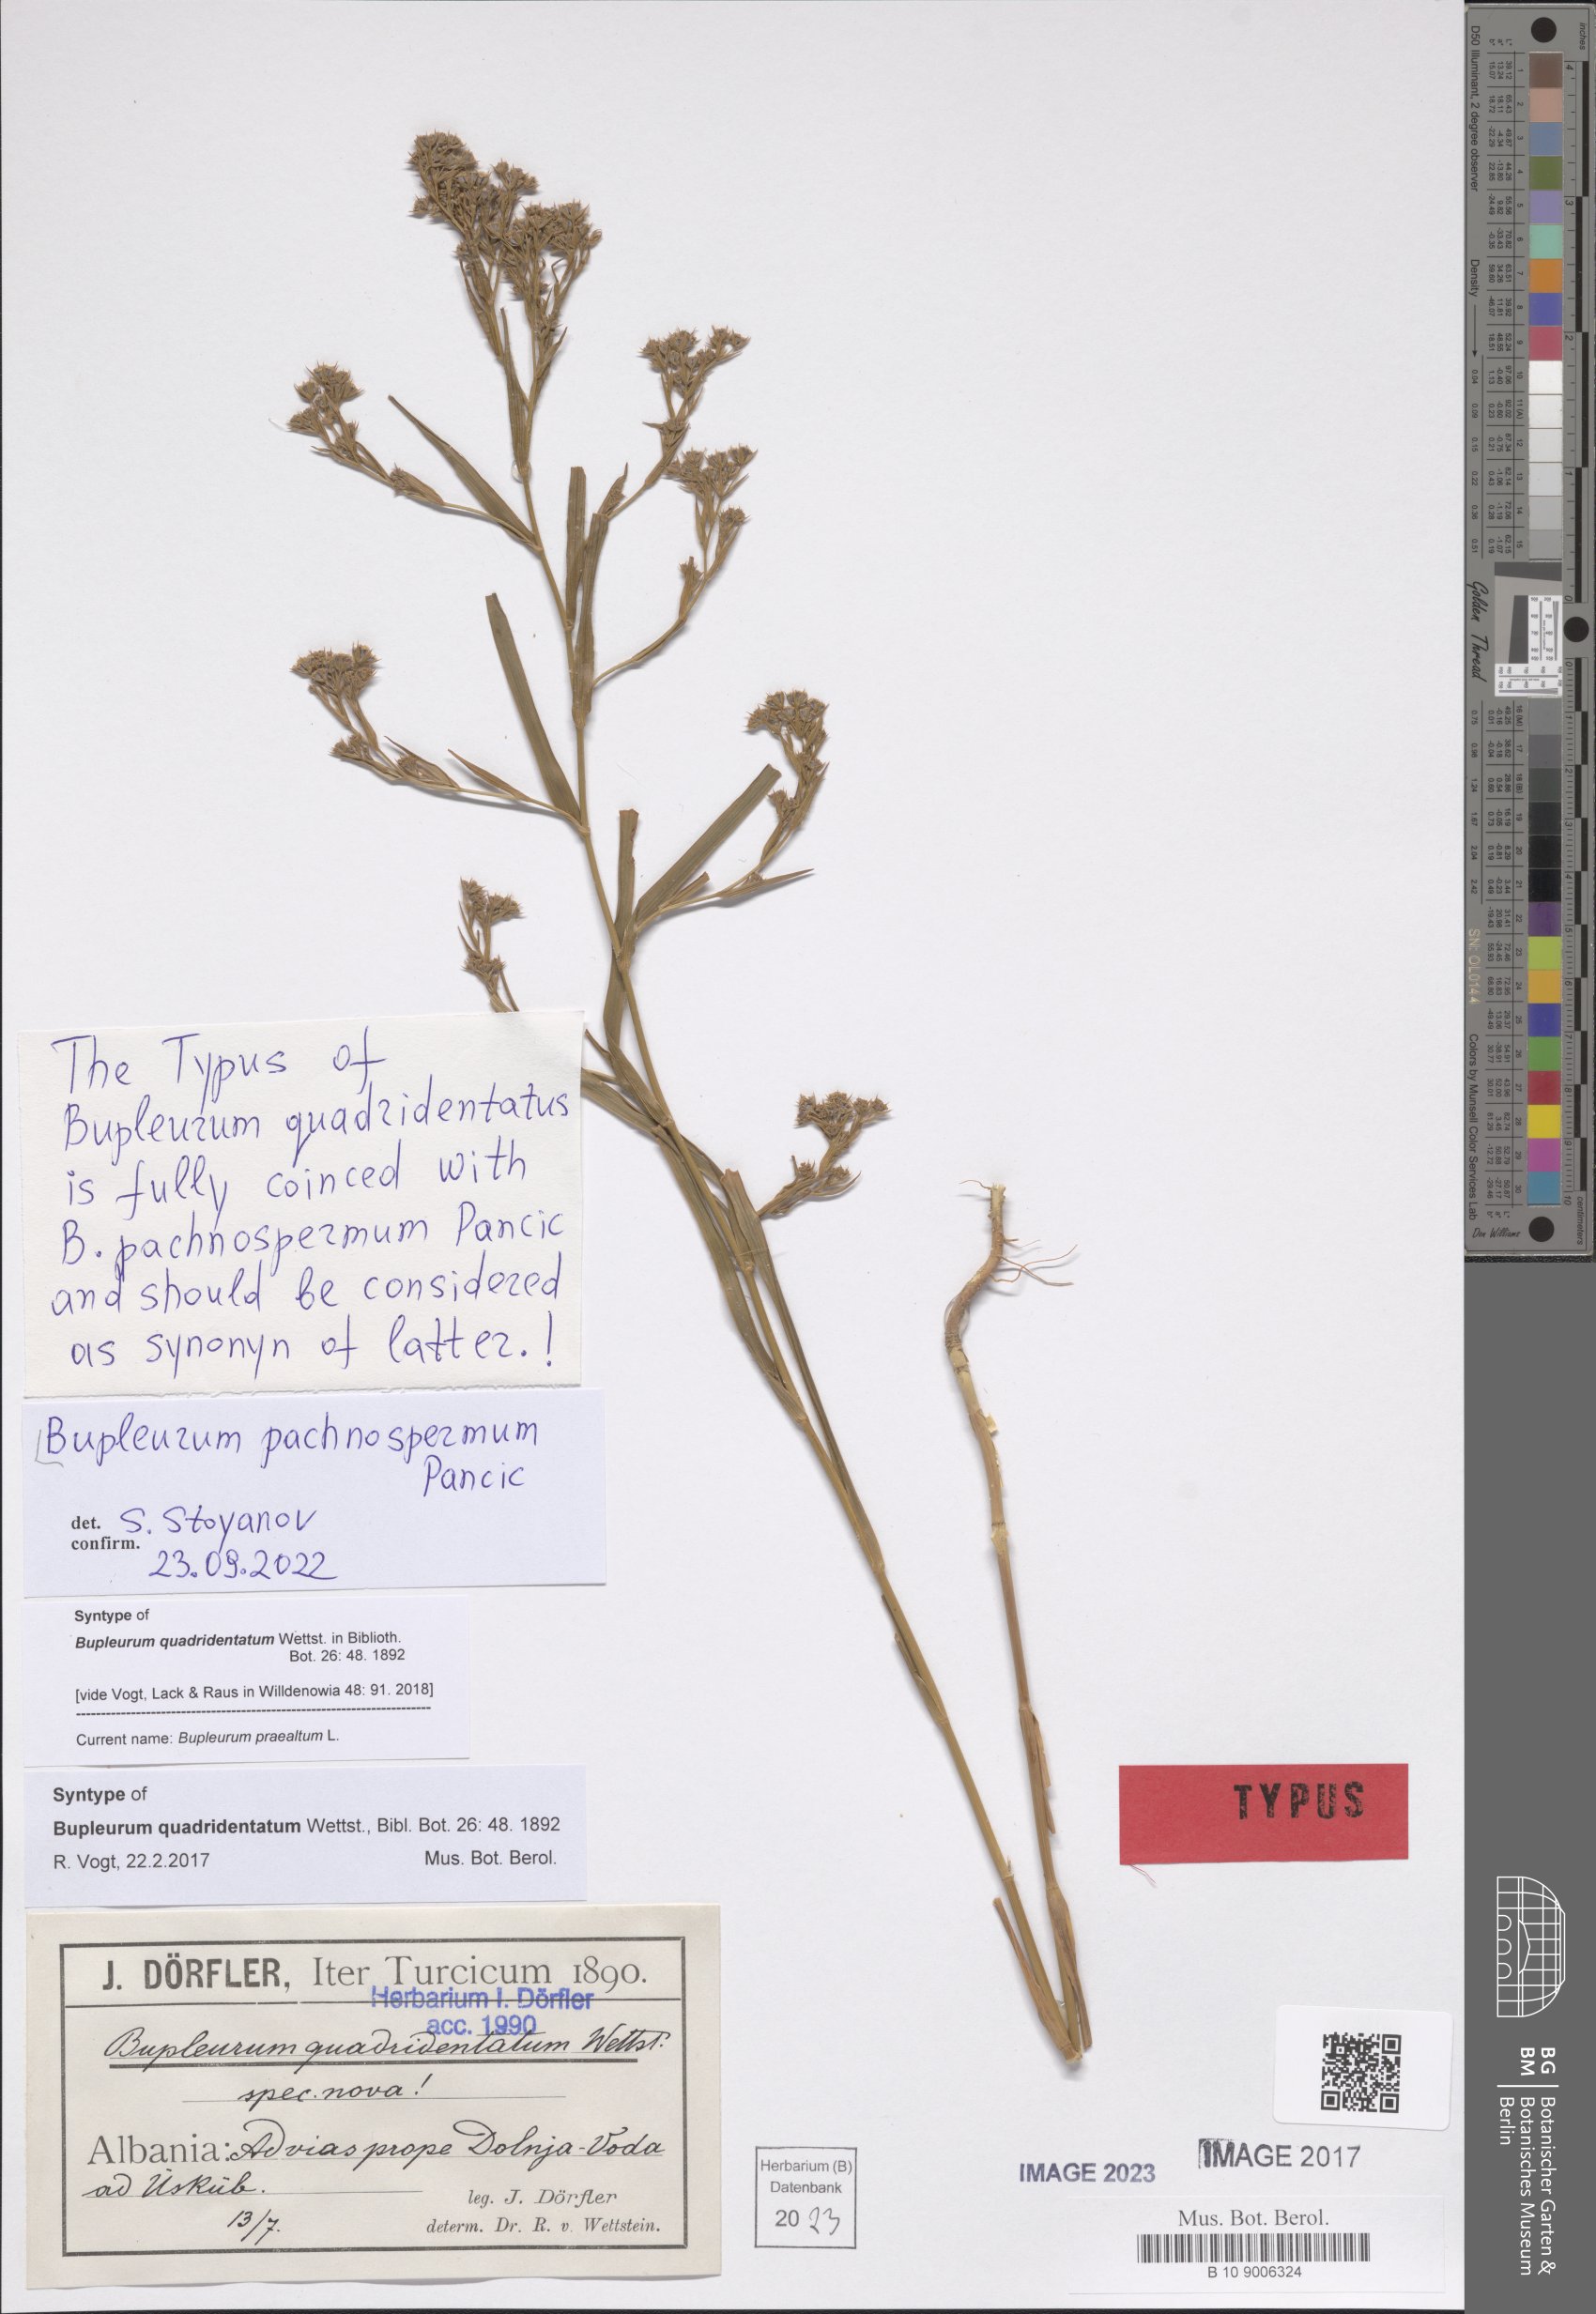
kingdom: Plantae
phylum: Tracheophyta
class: Magnoliopsida
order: Apiales
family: Apiaceae
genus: Bupleurum
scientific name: Bupleurum pachnospermum
